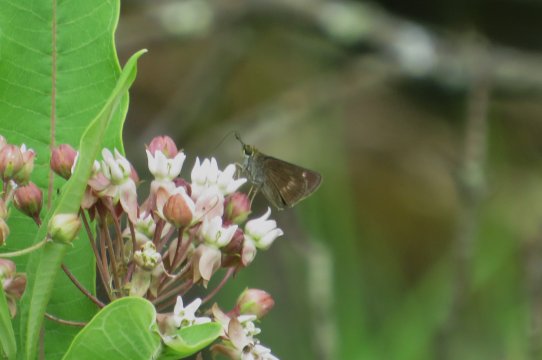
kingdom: Animalia
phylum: Arthropoda
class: Insecta
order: Lepidoptera
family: Hesperiidae
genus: Polites
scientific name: Polites
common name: Crossline Skipper
